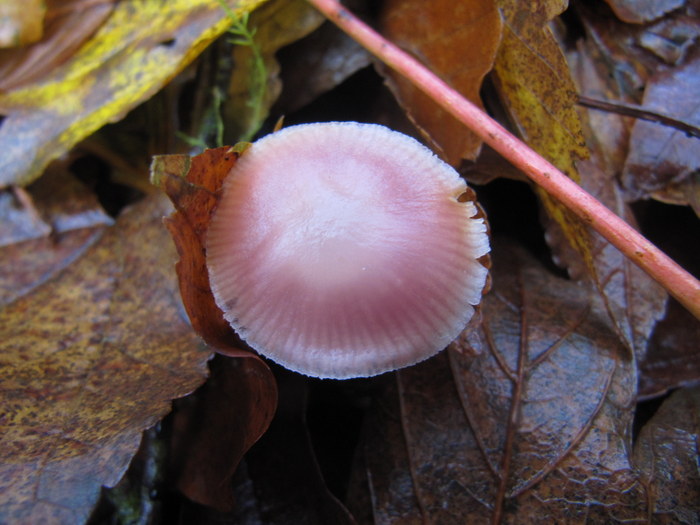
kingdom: Fungi
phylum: Basidiomycota
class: Agaricomycetes
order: Agaricales
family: Mycenaceae
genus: Mycena
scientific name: Mycena rosea
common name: rosa huesvamp
